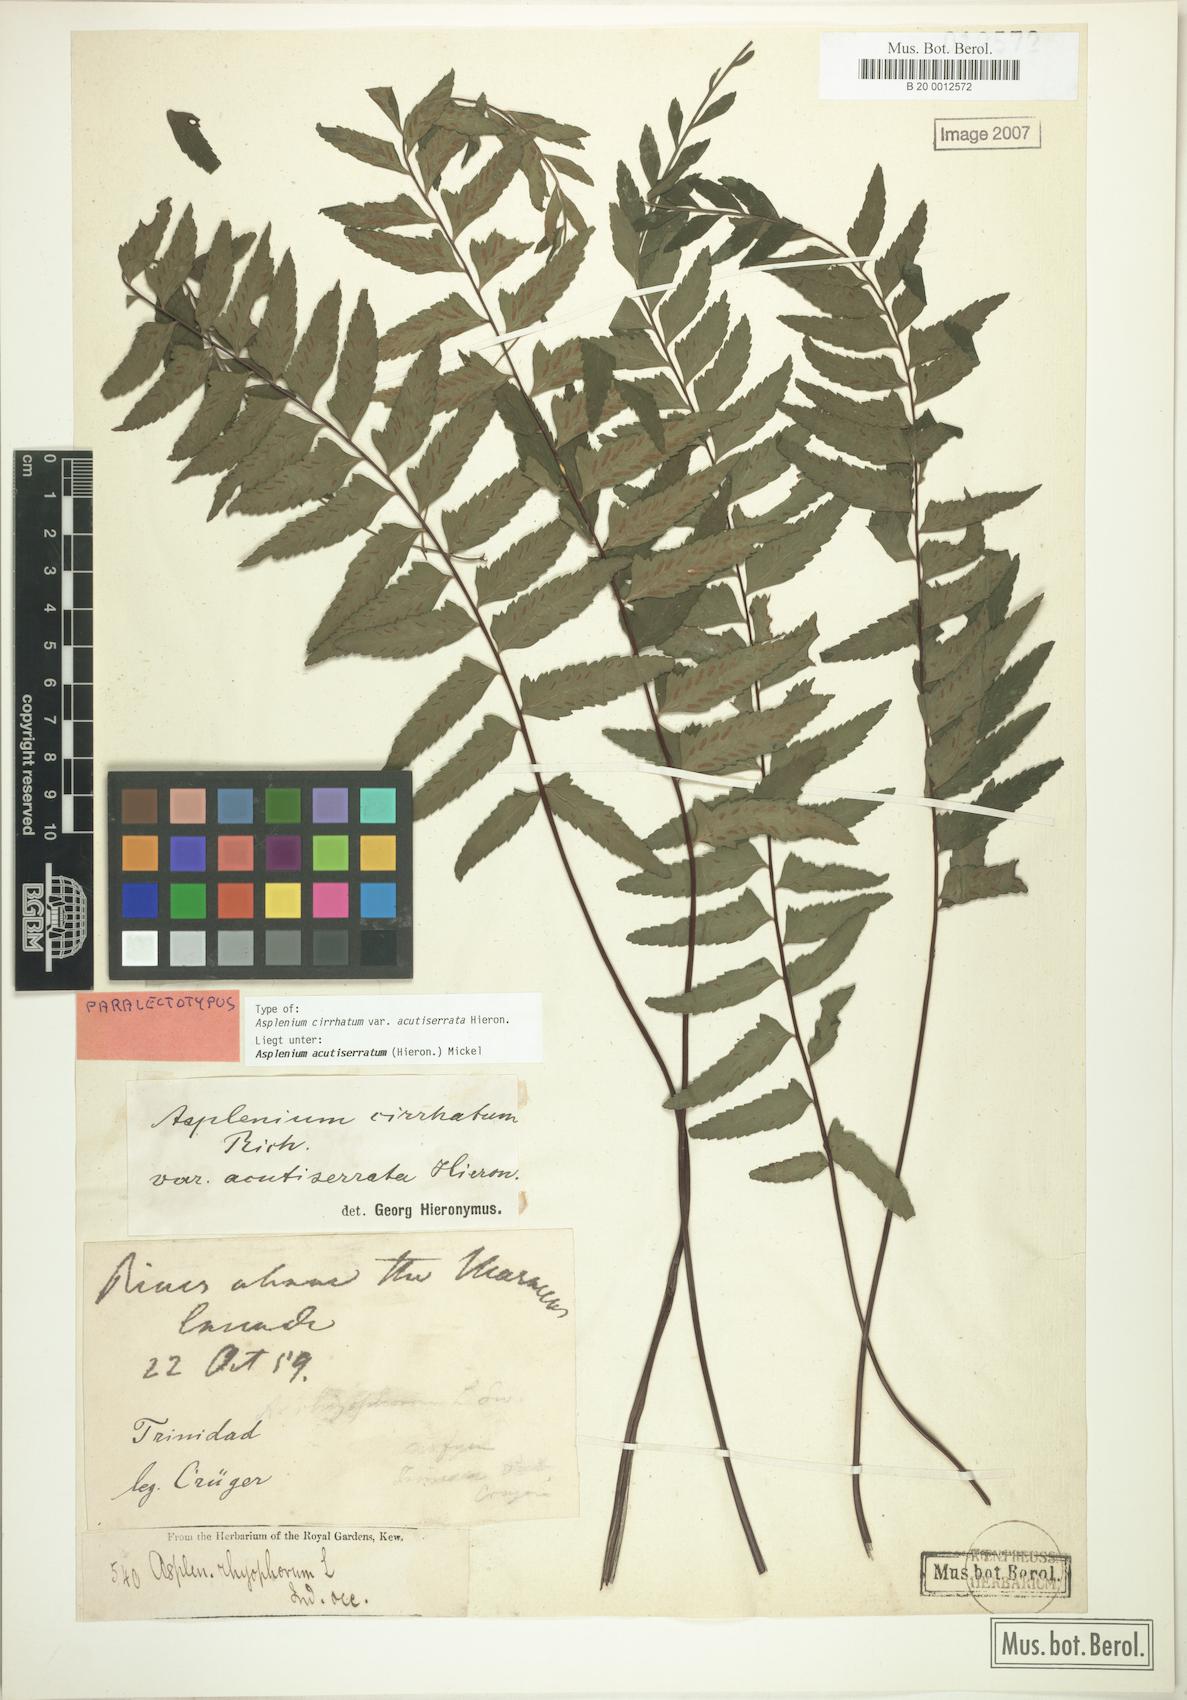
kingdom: Plantae
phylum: Tracheophyta
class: Polypodiopsida
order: Polypodiales
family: Aspleniaceae
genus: Asplenium
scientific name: Asplenium cirrhatum
